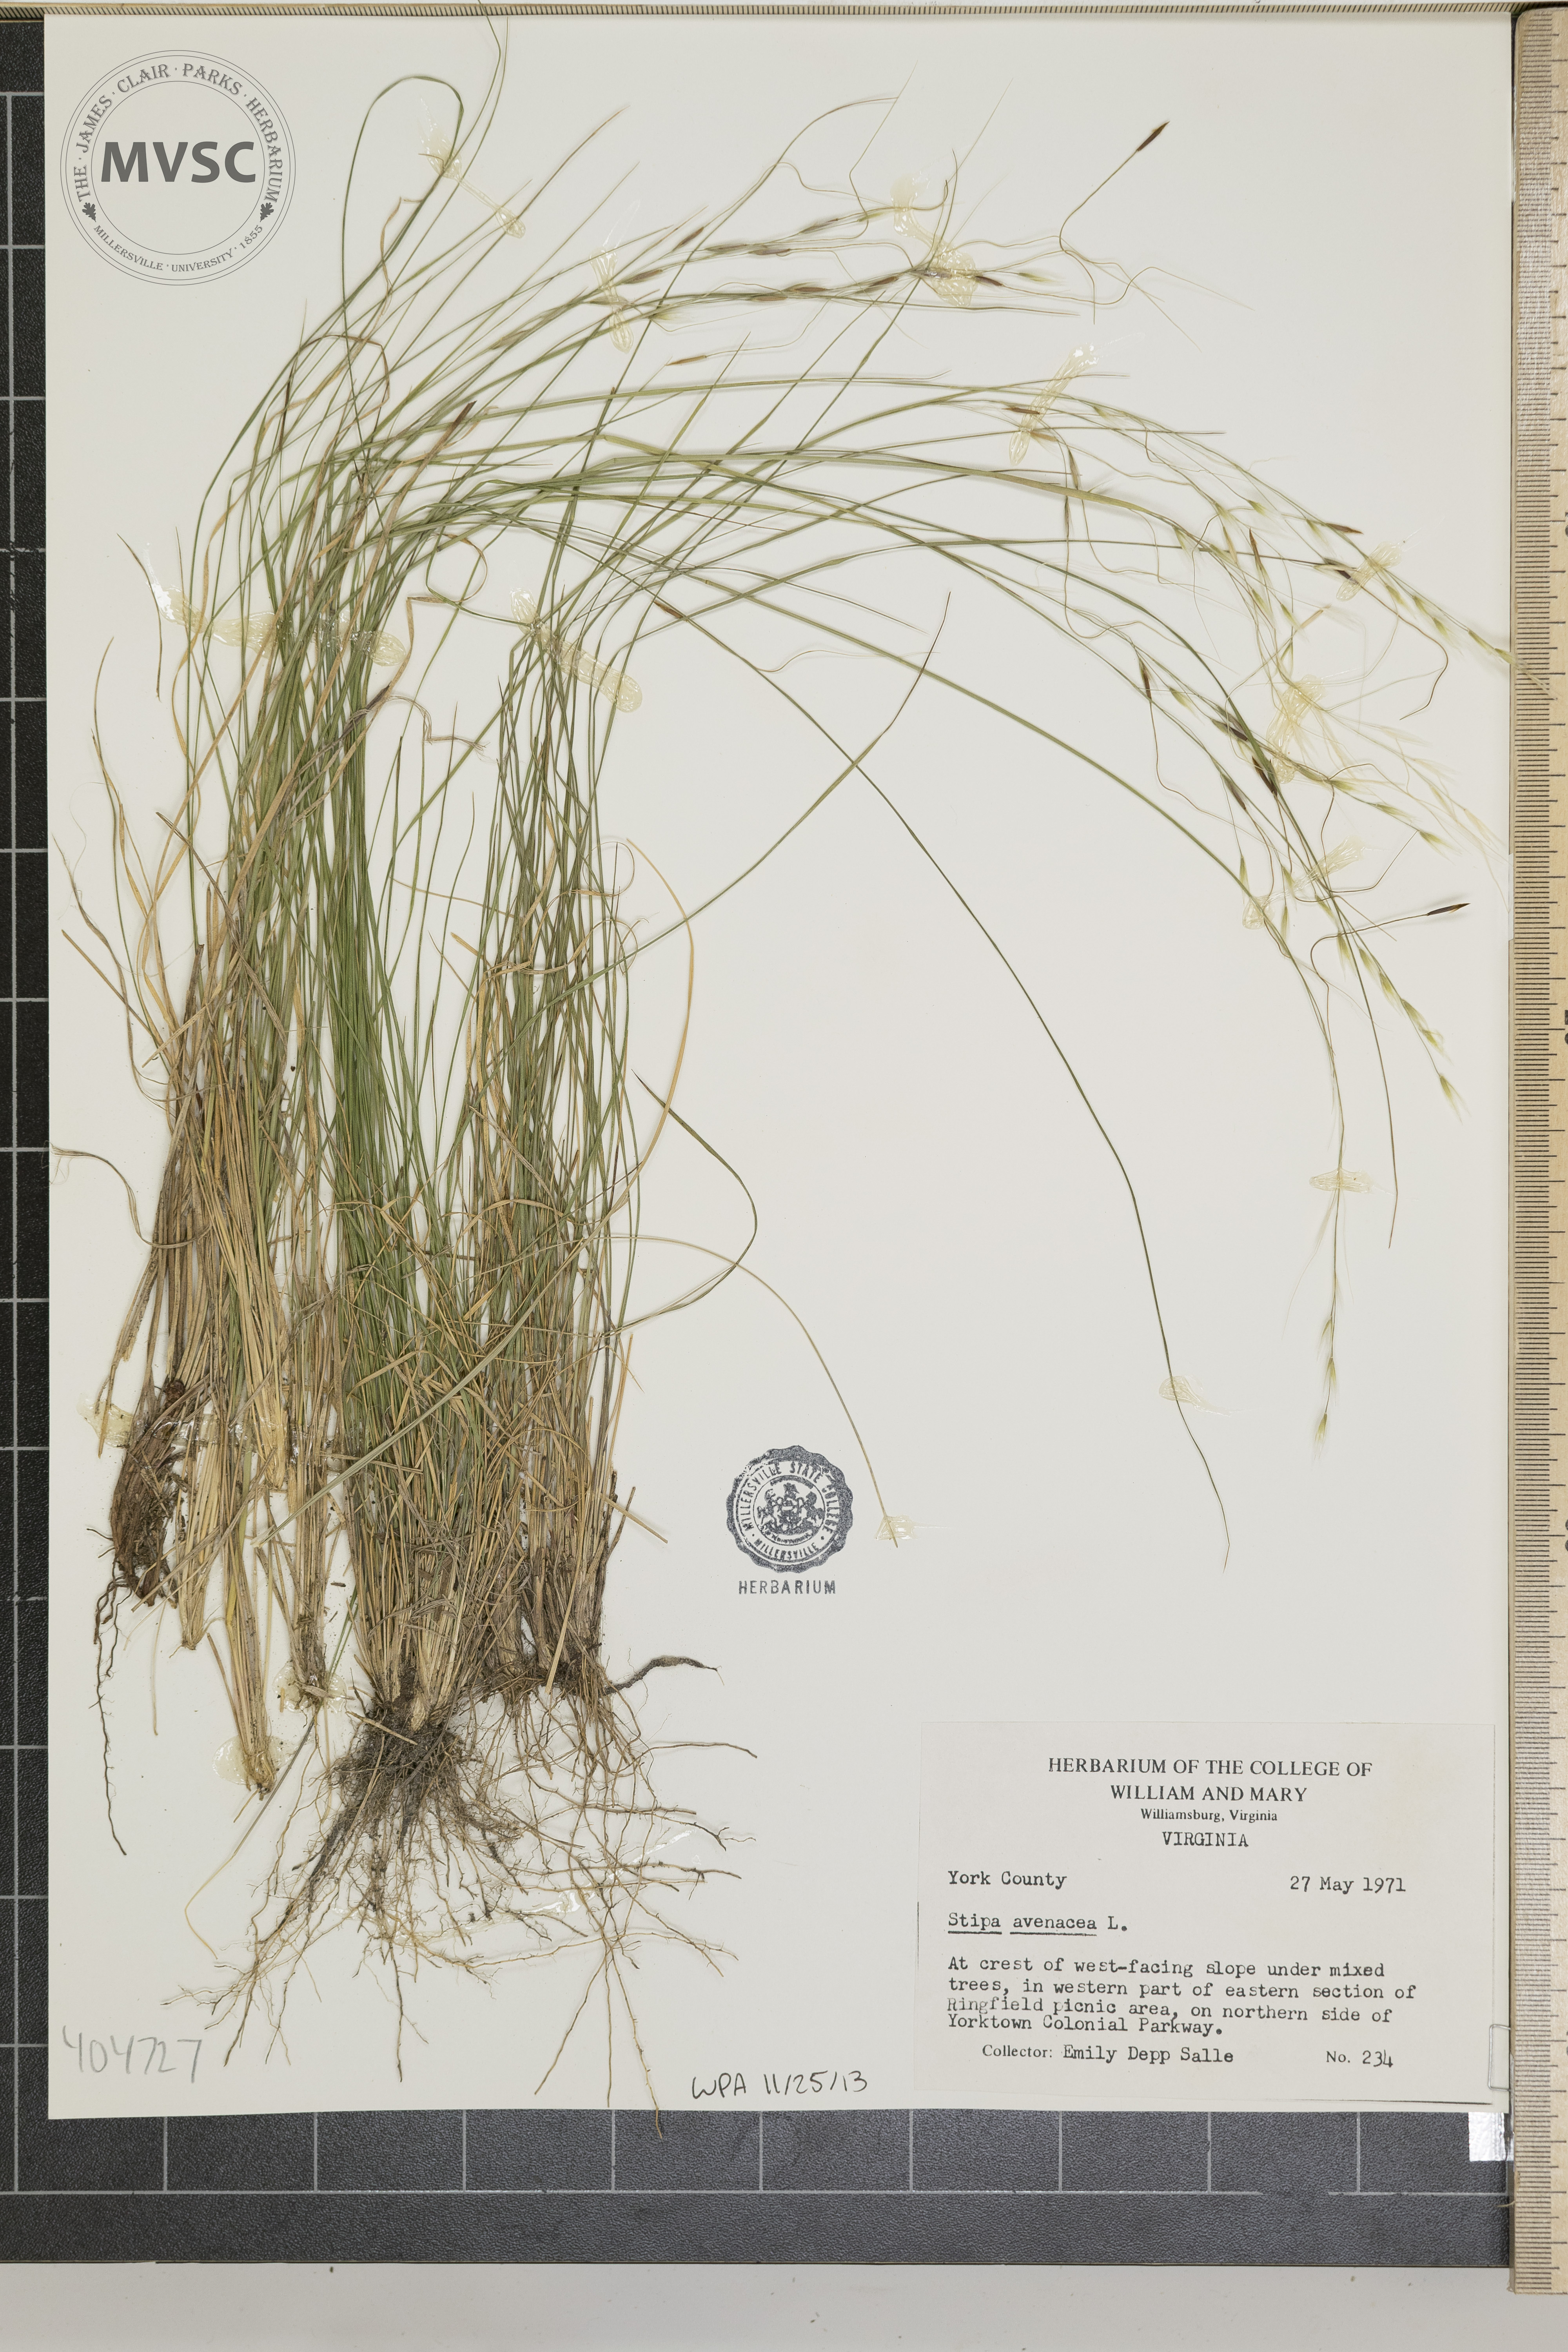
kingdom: Plantae
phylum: Tracheophyta
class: Liliopsida
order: Poales
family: Poaceae
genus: Stipa
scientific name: Stipa avenacea
